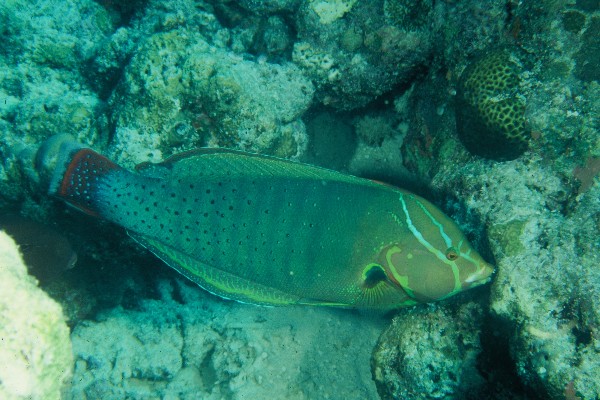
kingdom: Animalia
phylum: Chordata
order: Perciformes
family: Labridae
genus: Coris
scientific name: Coris formosa
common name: Queen coris
